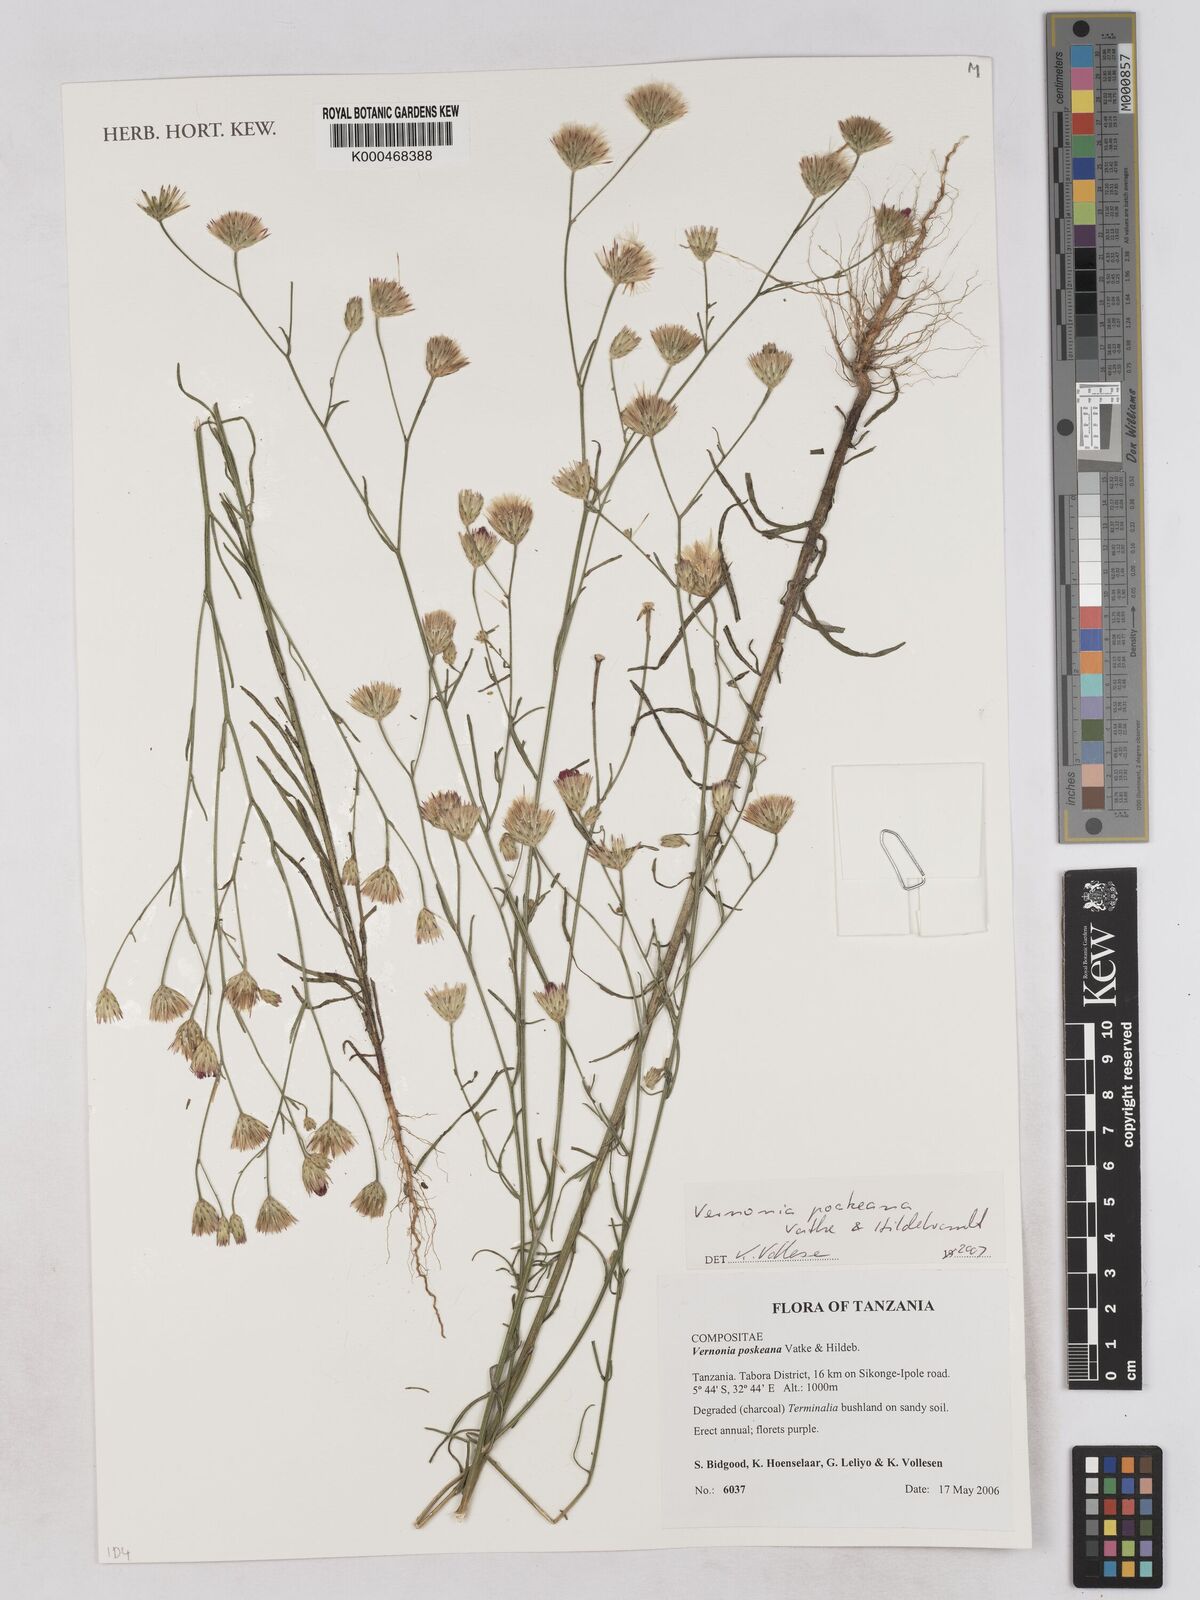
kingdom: Plantae
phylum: Tracheophyta
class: Magnoliopsida
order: Asterales
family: Asteraceae
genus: Crystallopollen
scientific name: Crystallopollen angustifolium
